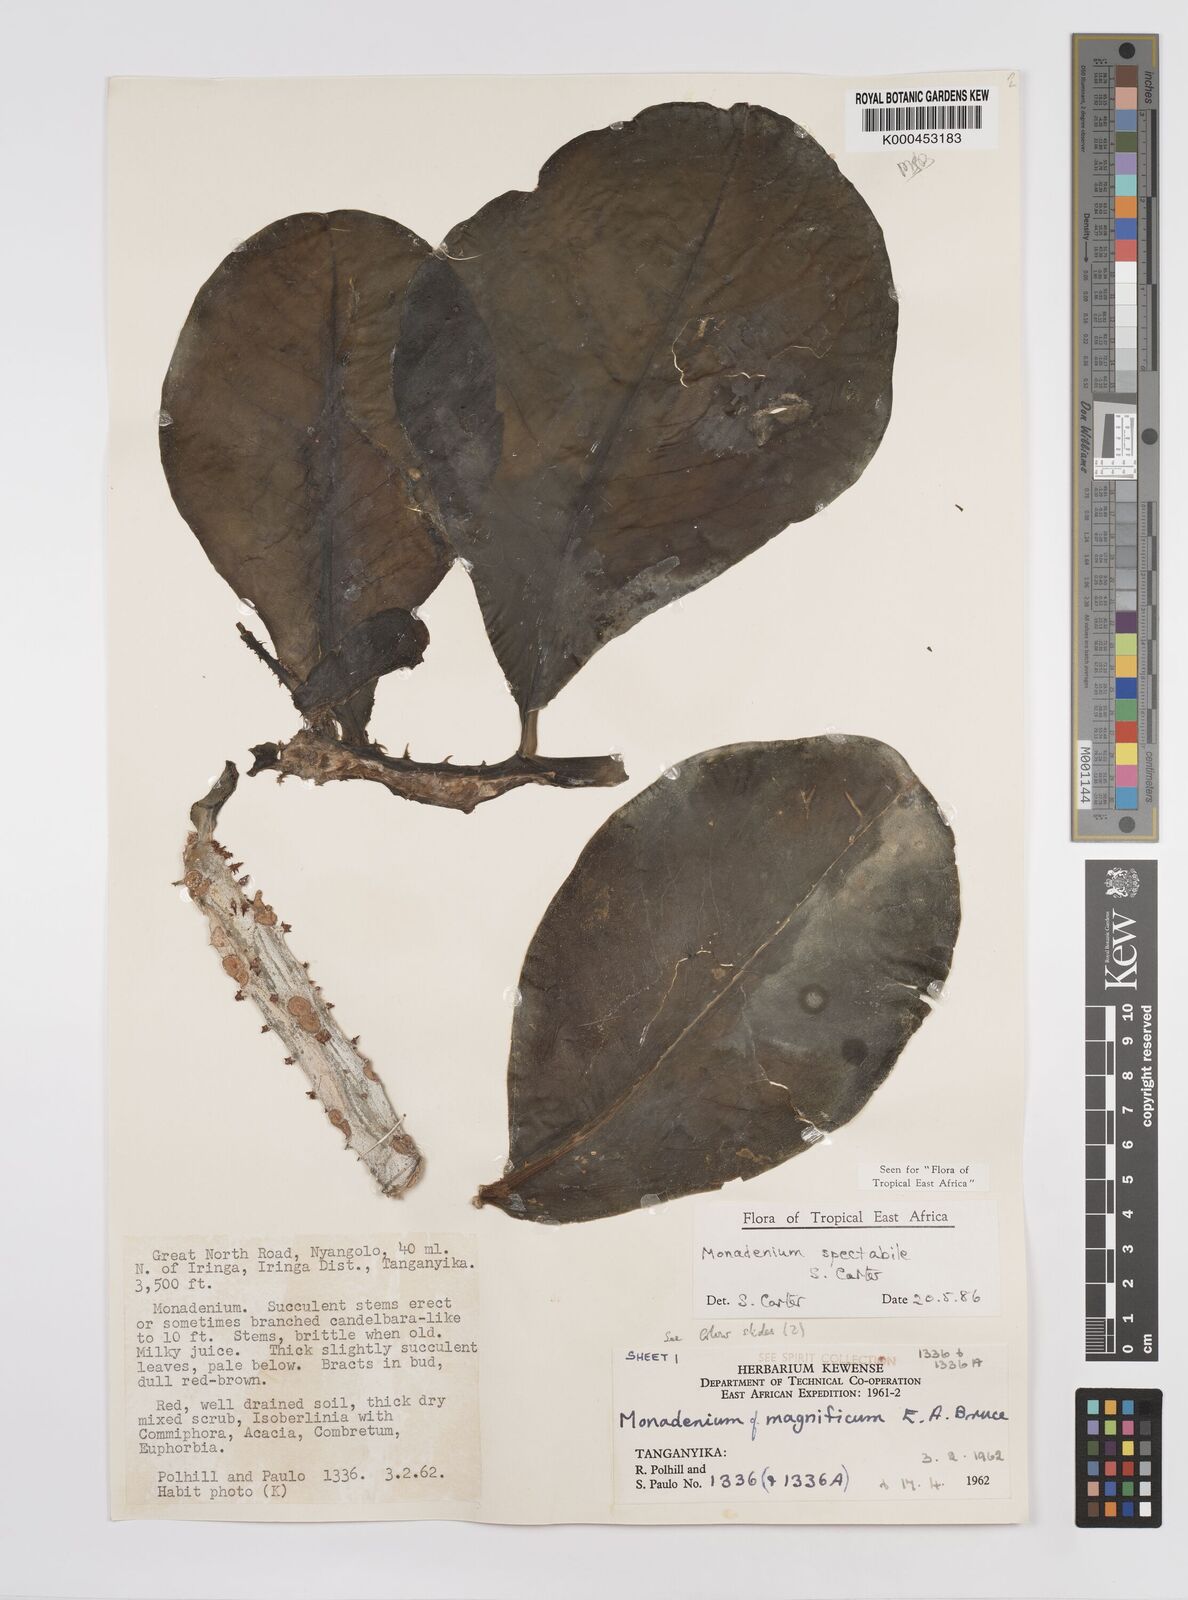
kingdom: Plantae
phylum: Tracheophyta
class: Magnoliopsida
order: Malpighiales
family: Euphorbiaceae
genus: Euphorbia
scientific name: Euphorbia spectabilis
